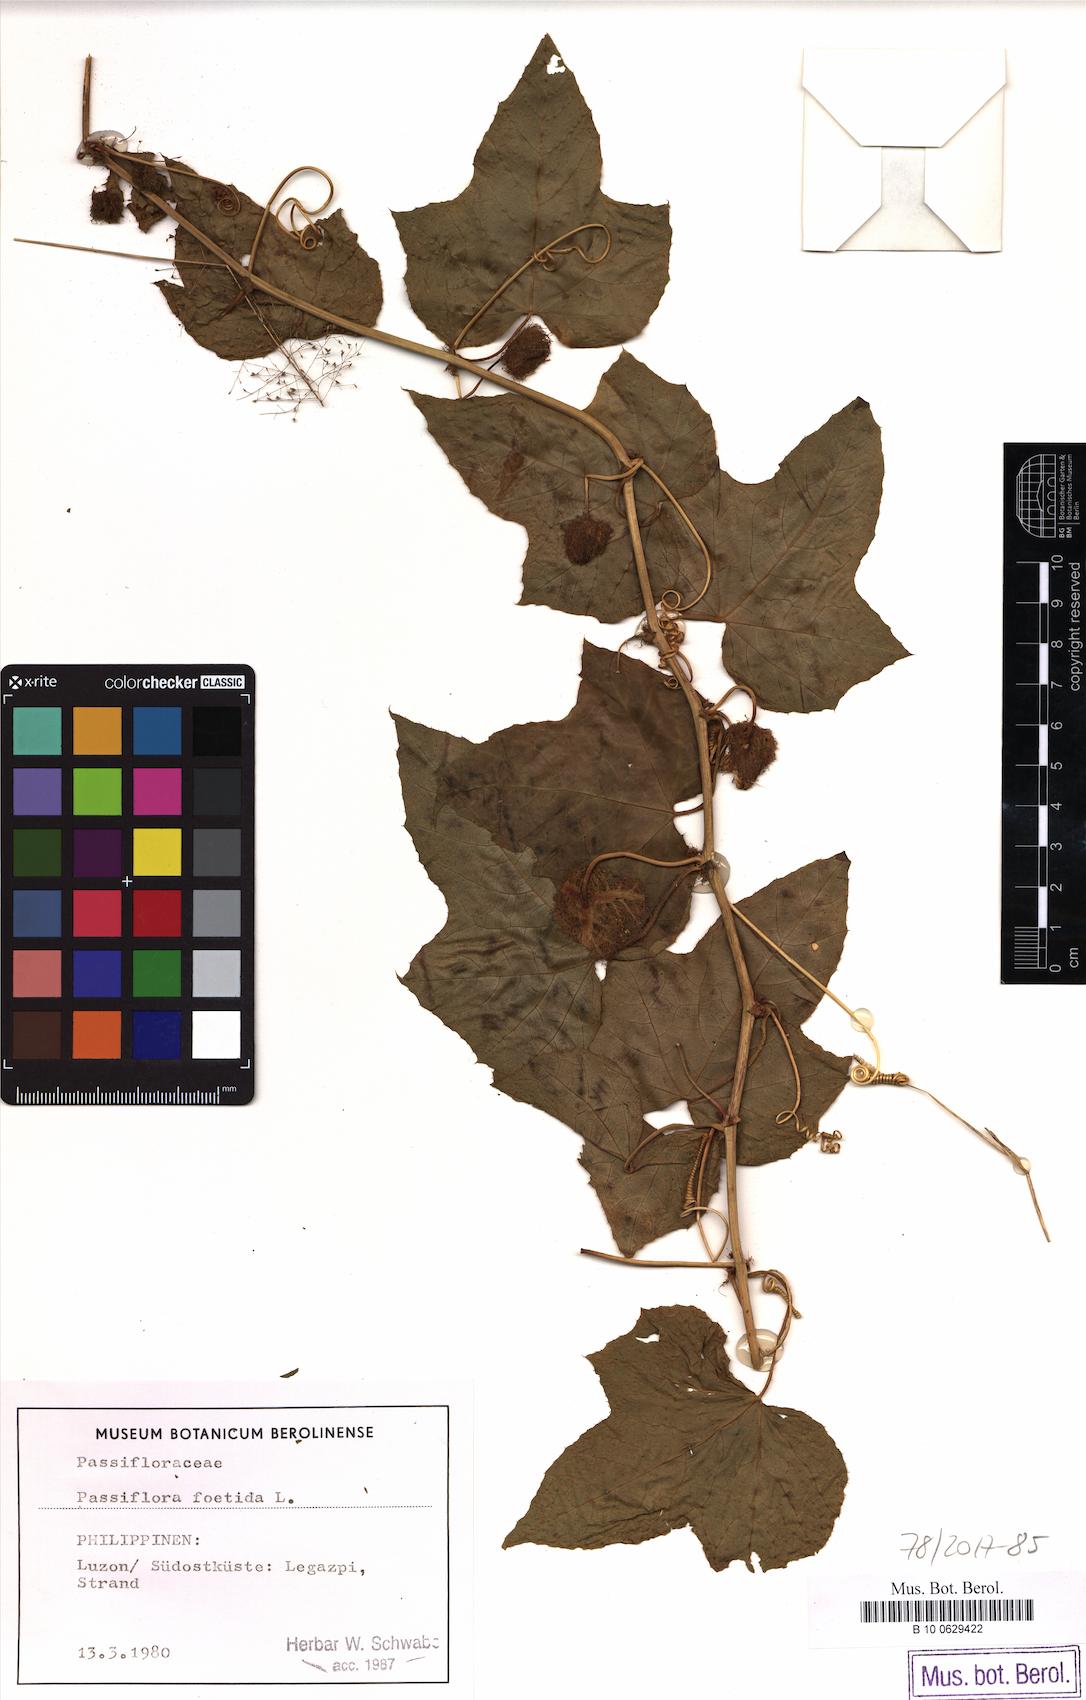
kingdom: Plantae
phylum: Tracheophyta
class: Magnoliopsida
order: Malpighiales
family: Passifloraceae
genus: Passiflora
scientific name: Passiflora foetida
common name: Fetid passionflower
